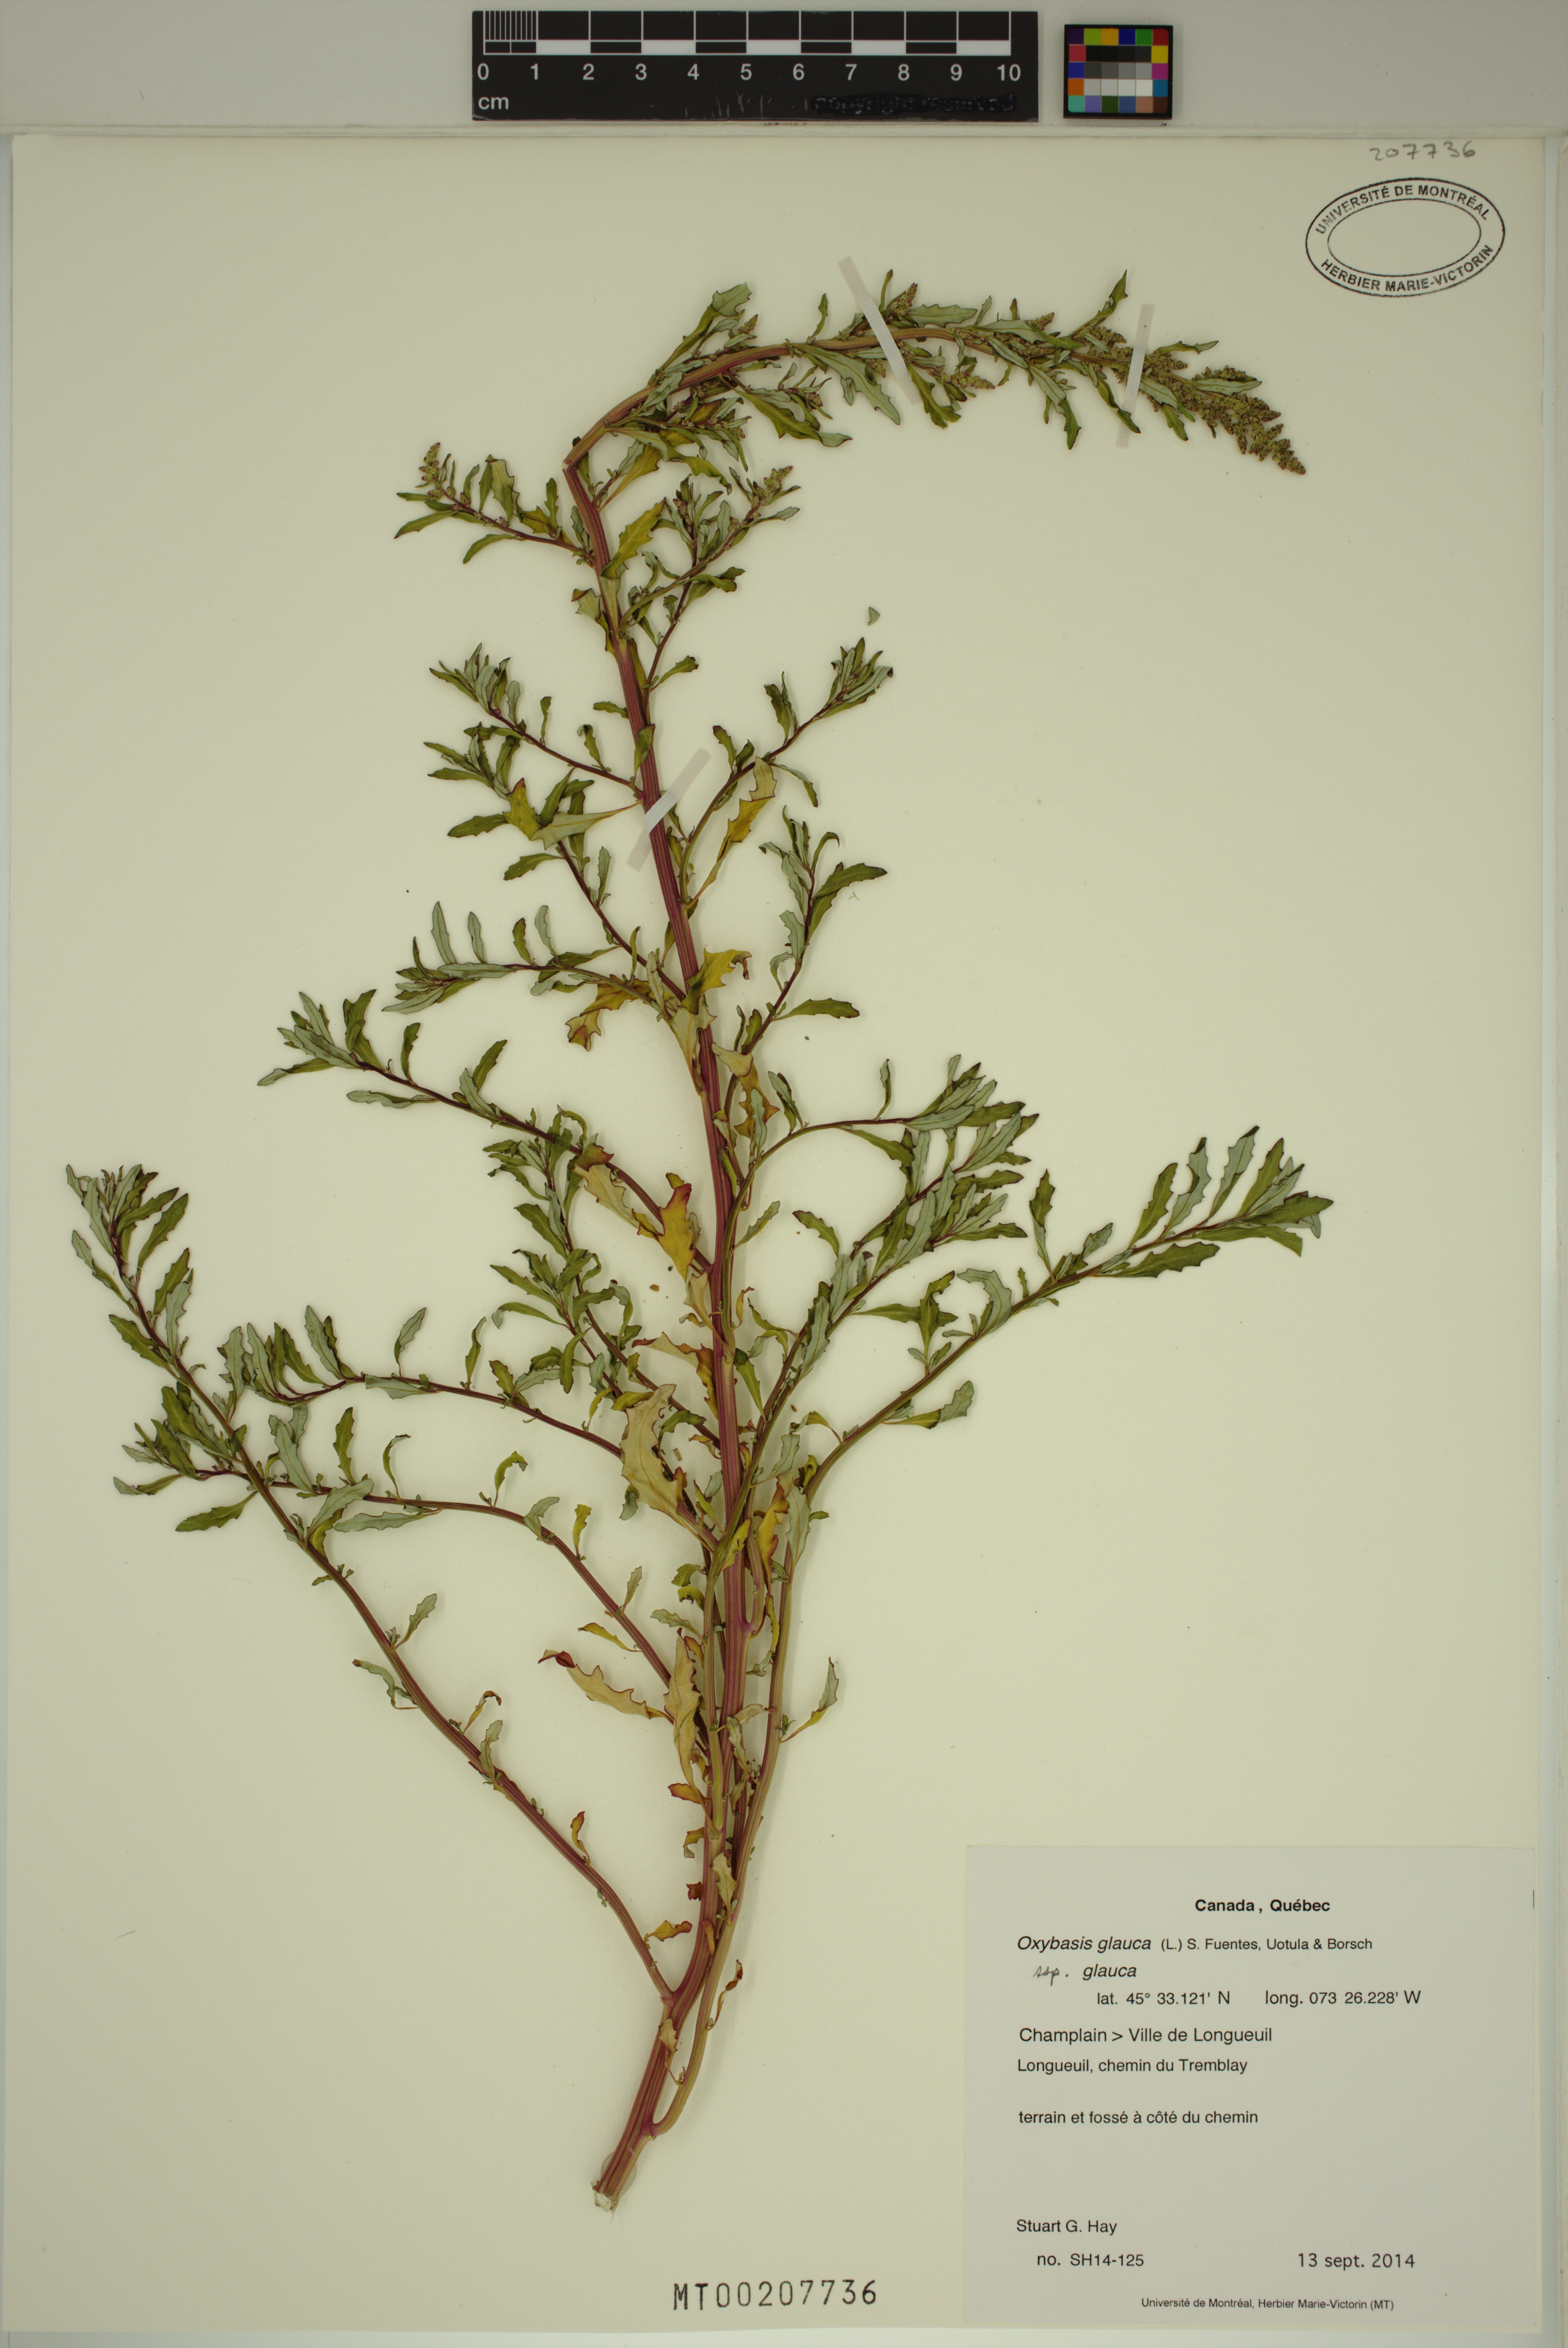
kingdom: Plantae
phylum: Tracheophyta
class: Magnoliopsida
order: Caryophyllales
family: Amaranthaceae
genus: Oxybasis
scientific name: Oxybasis glauca
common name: Glaucous goosefoot
